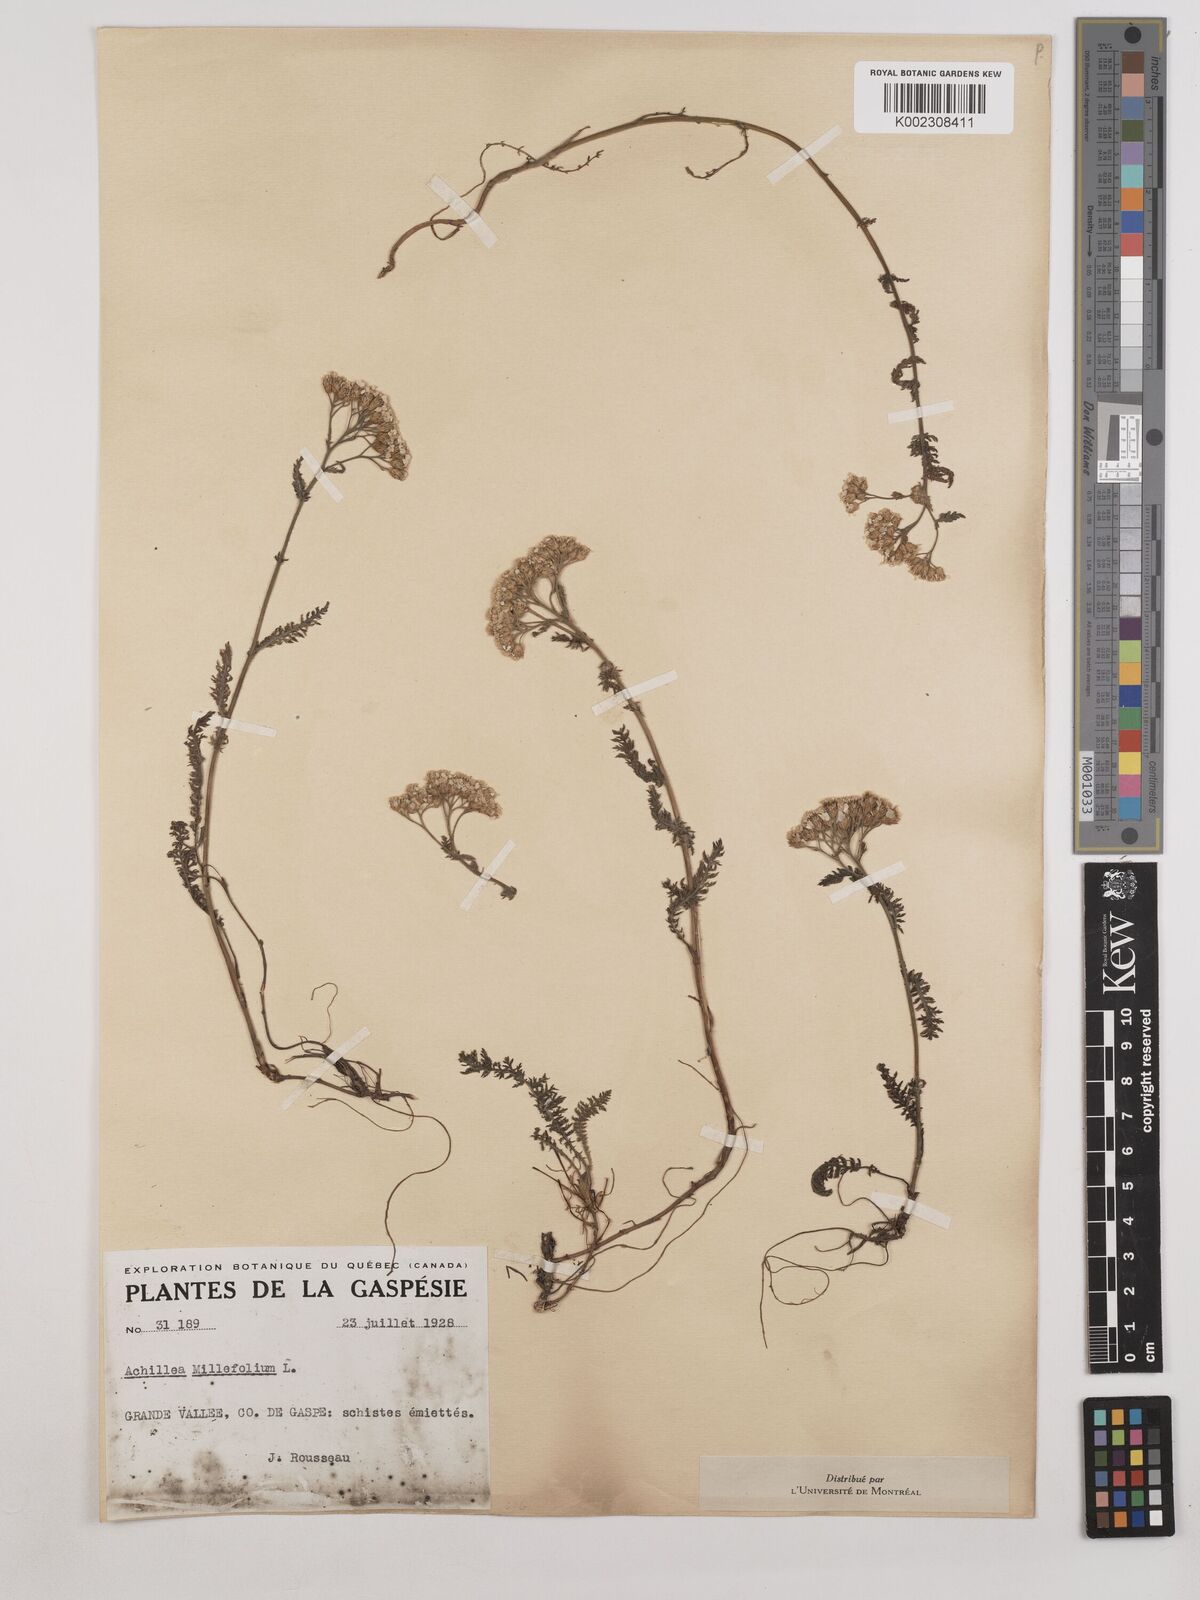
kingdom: Plantae
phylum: Tracheophyta
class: Magnoliopsida
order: Asterales
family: Asteraceae
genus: Achillea
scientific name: Achillea millefolium
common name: Yarrow
